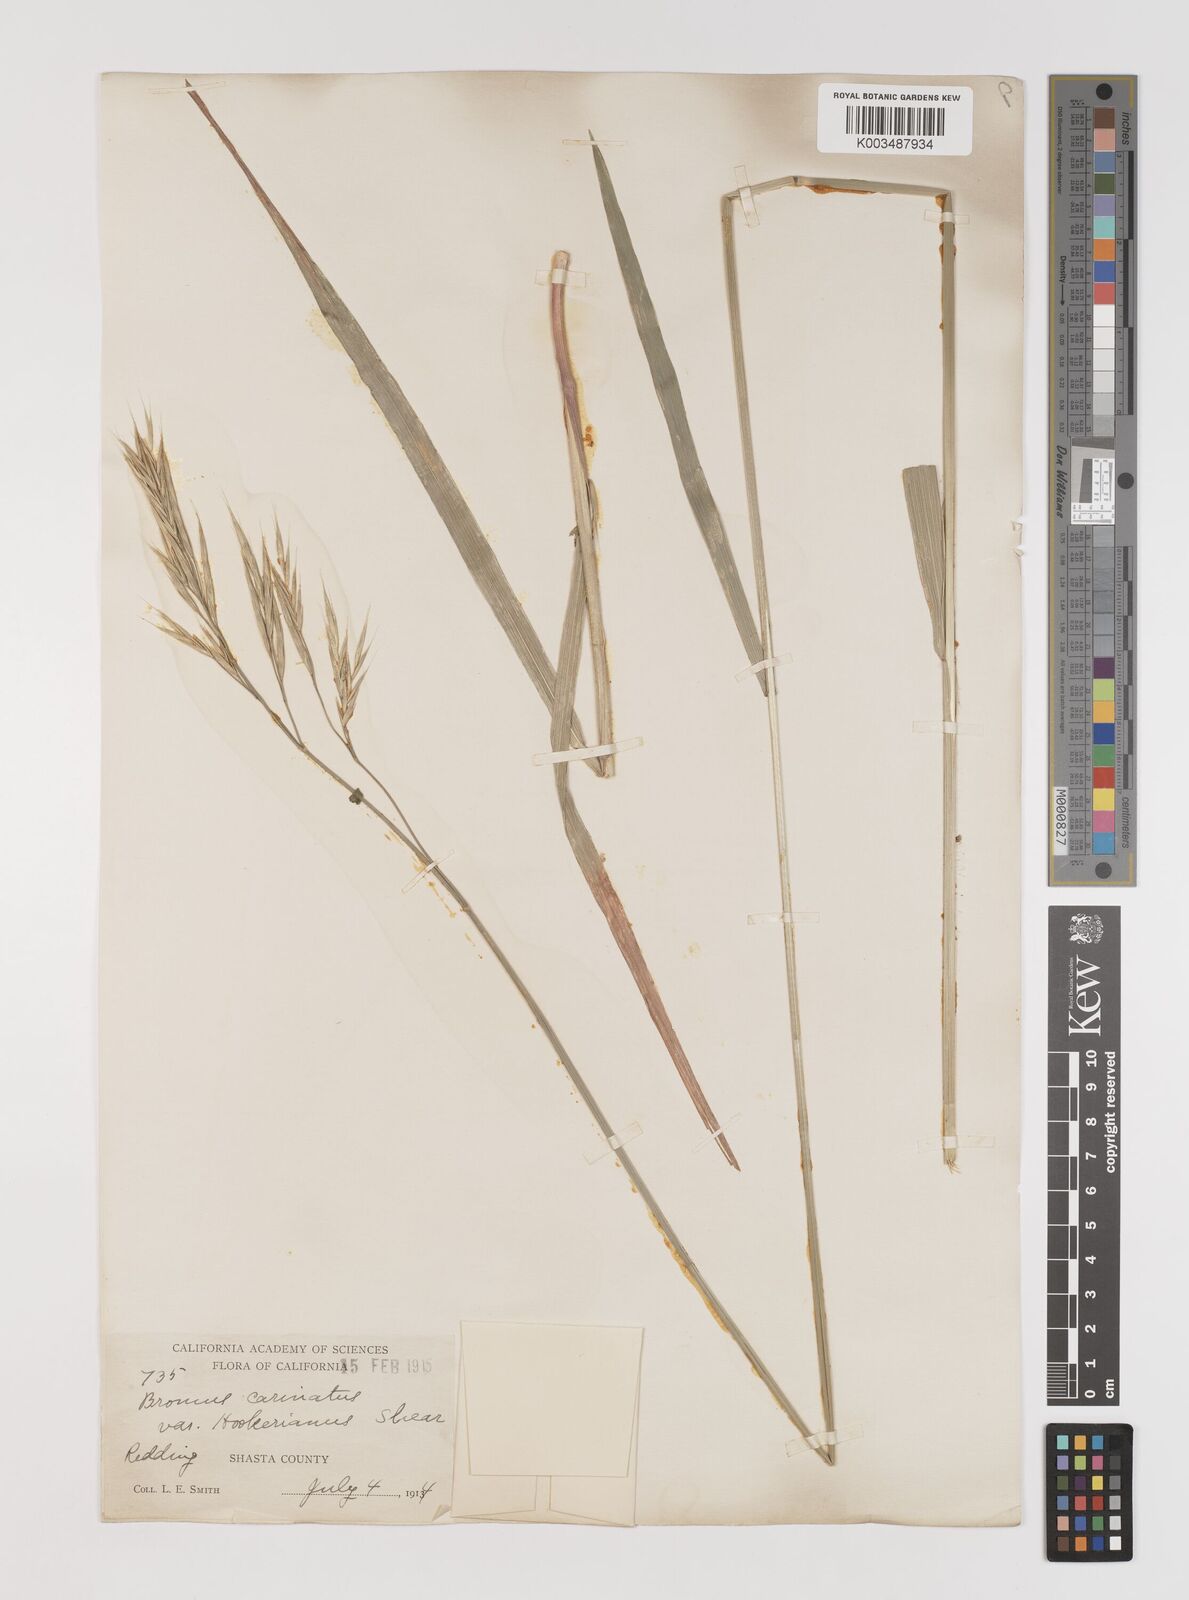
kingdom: Plantae
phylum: Tracheophyta
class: Liliopsida
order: Poales
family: Poaceae
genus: Bromus
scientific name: Bromus carinatus
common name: Mountain brome
